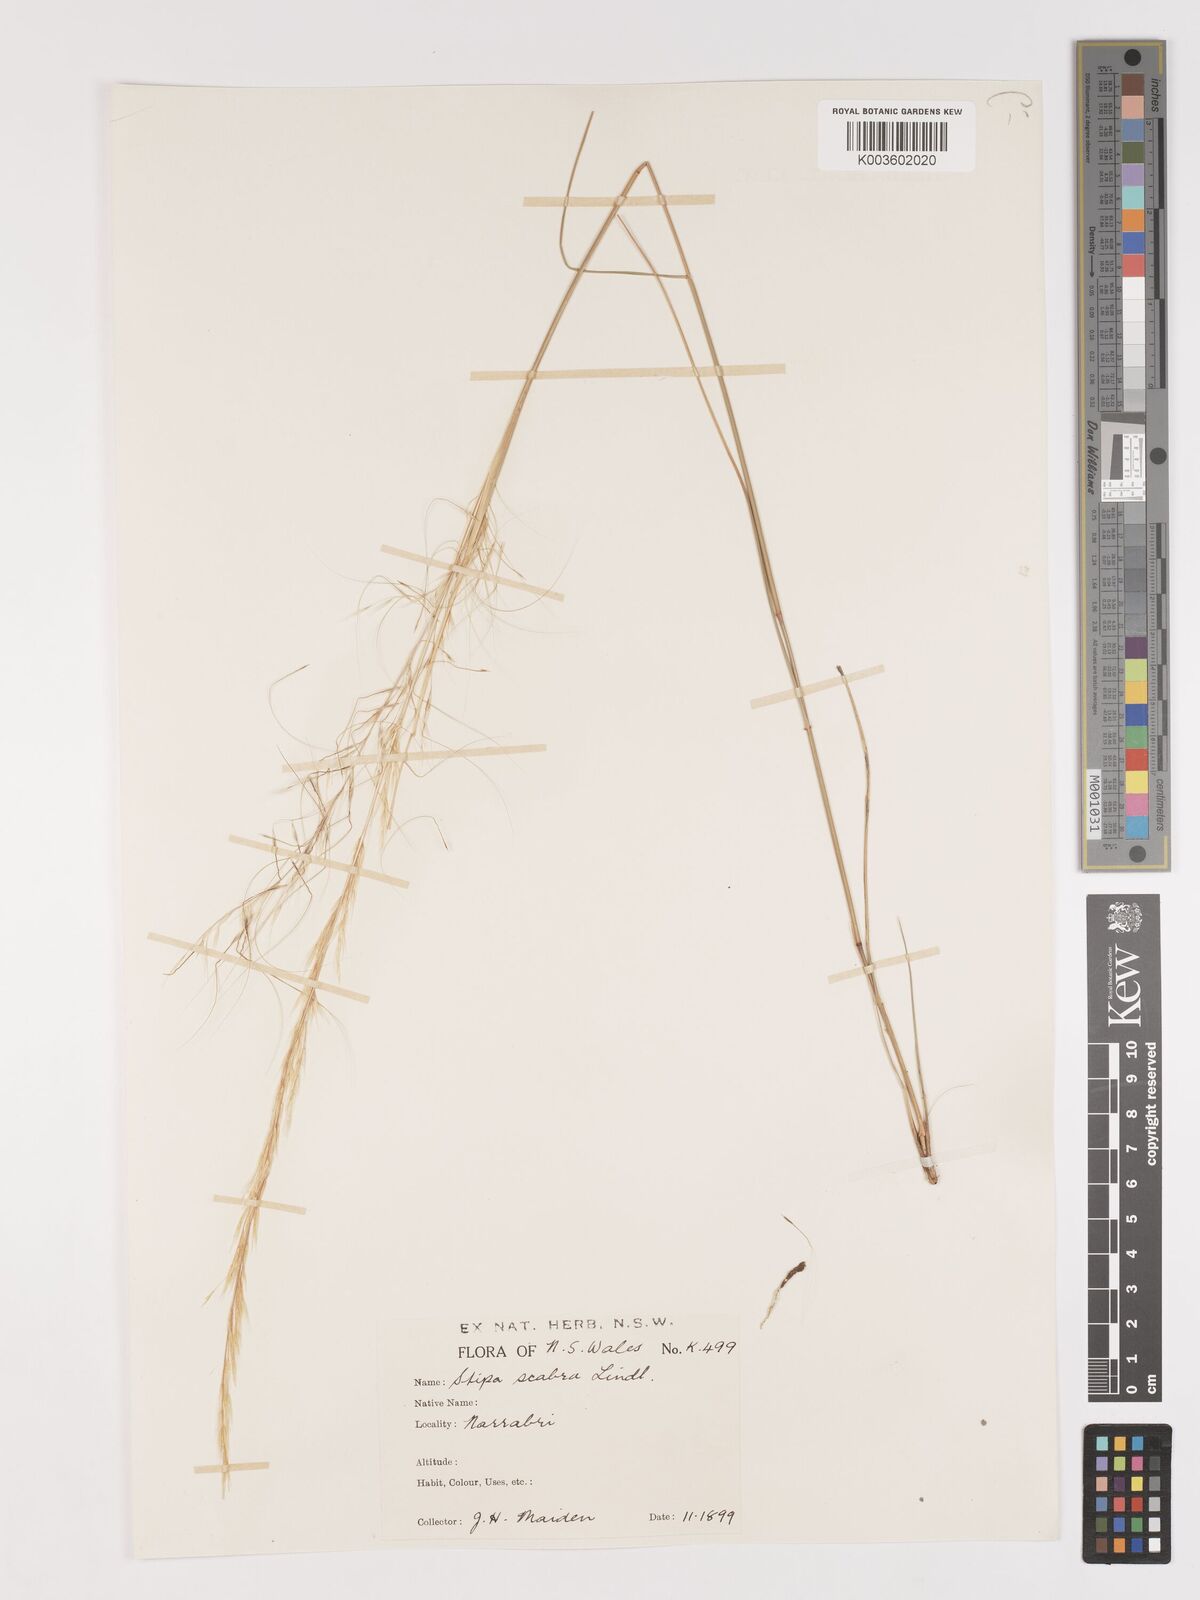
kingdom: Plantae
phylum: Tracheophyta
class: Liliopsida
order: Poales
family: Poaceae
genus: Austrostipa
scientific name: Austrostipa scabra
